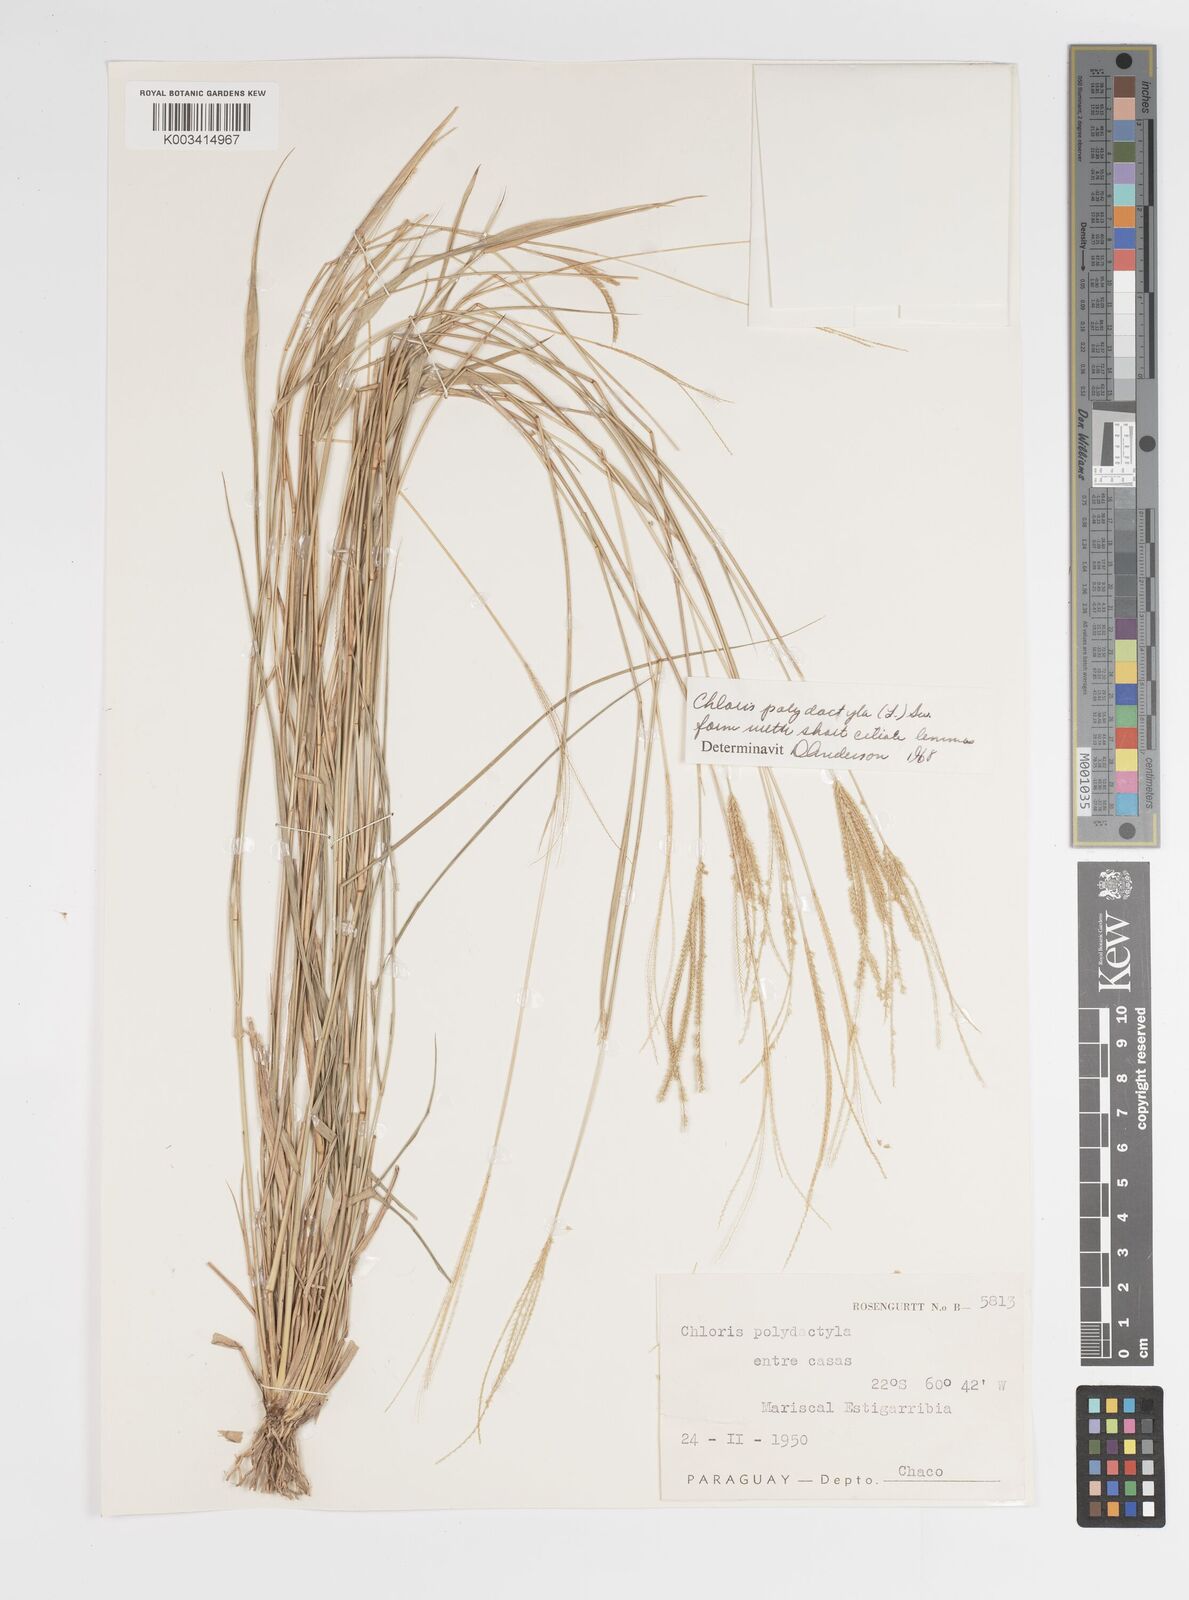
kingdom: Plantae
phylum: Tracheophyta
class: Liliopsida
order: Poales
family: Poaceae
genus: Stapfochloa
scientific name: Stapfochloa elata
